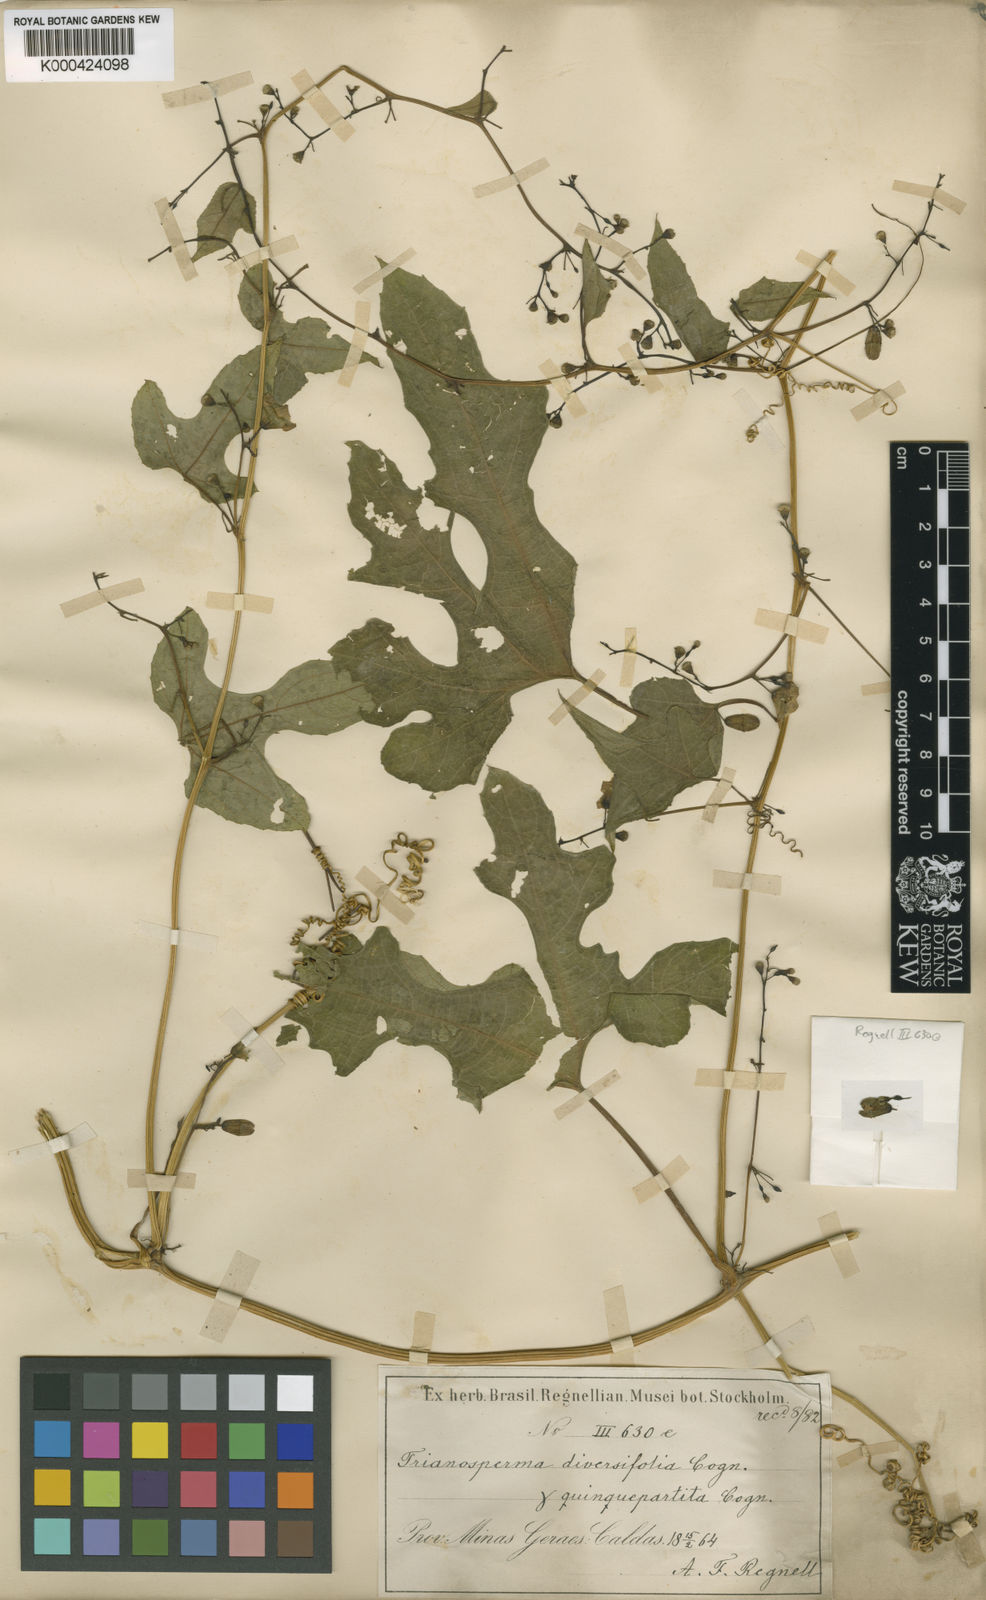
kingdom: Plantae
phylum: Tracheophyta
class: Magnoliopsida
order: Cucurbitales
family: Cucurbitaceae
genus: Cayaponia
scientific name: Cayaponia diversifolia
